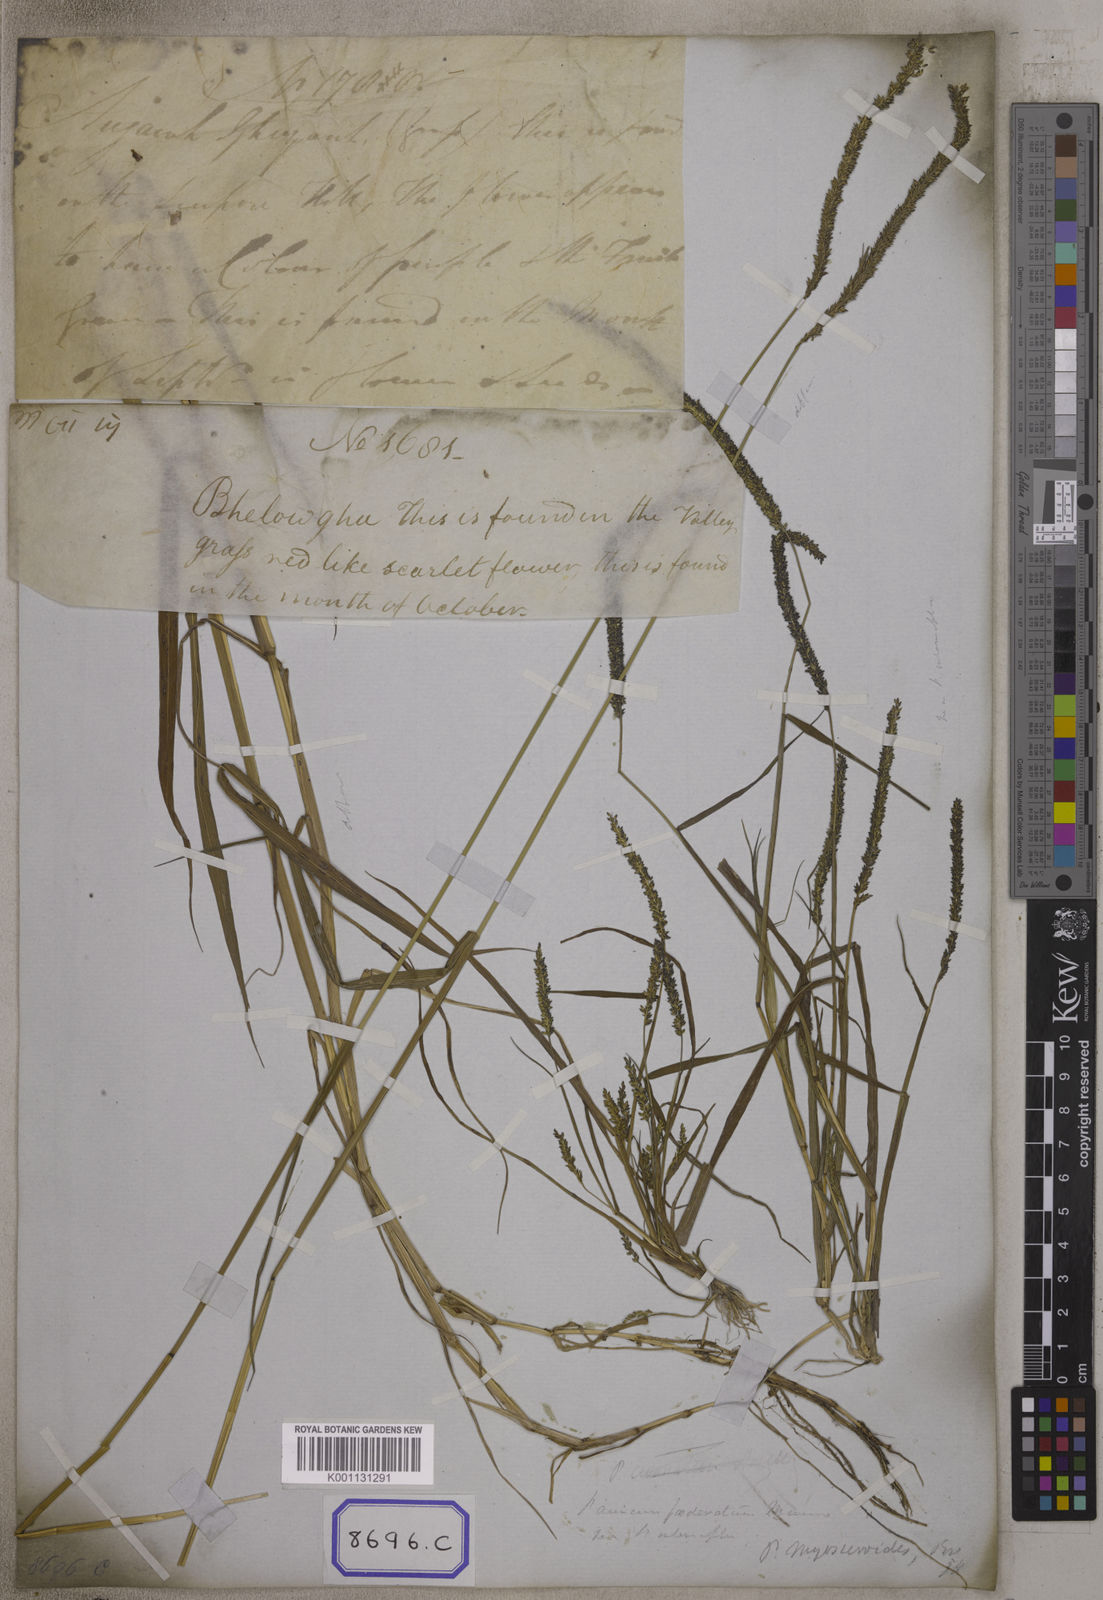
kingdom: Plantae
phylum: Tracheophyta
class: Liliopsida
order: Poales
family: Poaceae
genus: Panicum
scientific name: Panicum
